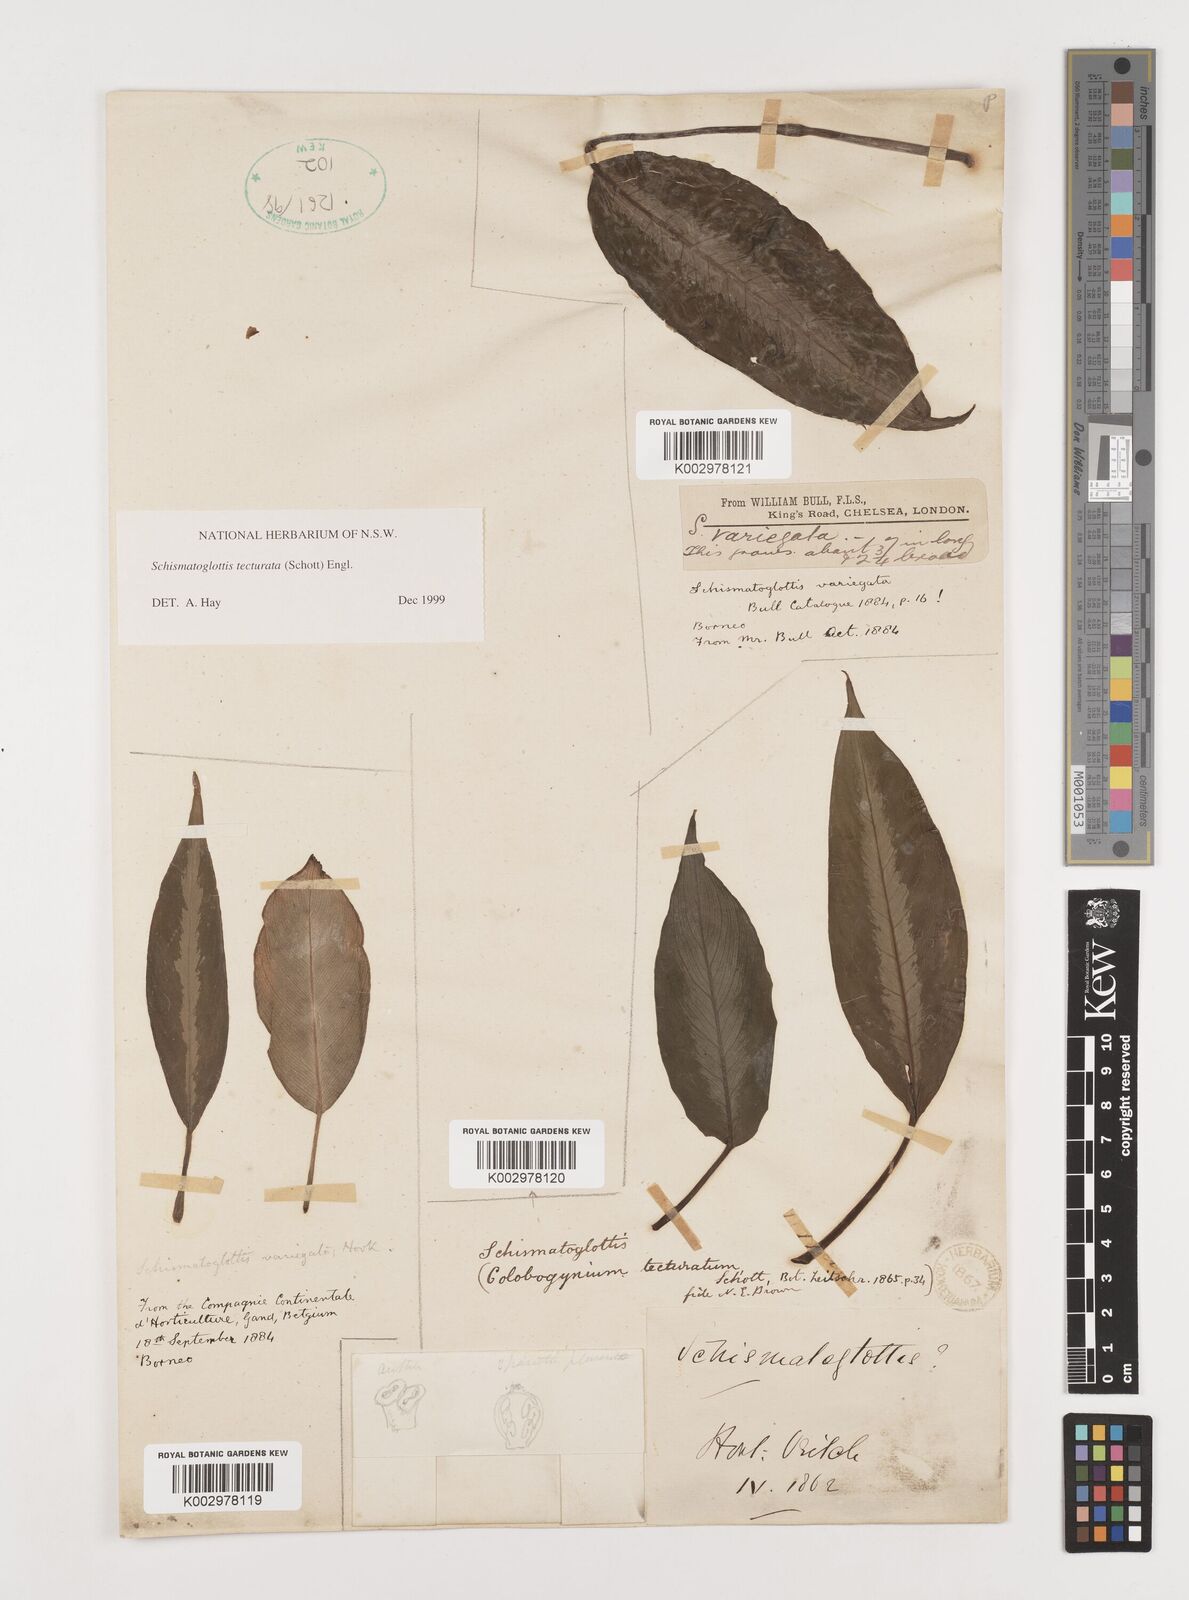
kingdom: Plantae
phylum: Tracheophyta
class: Liliopsida
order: Zingiberales
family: Costaceae
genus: Colobogynium
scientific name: Colobogynium variegatum
